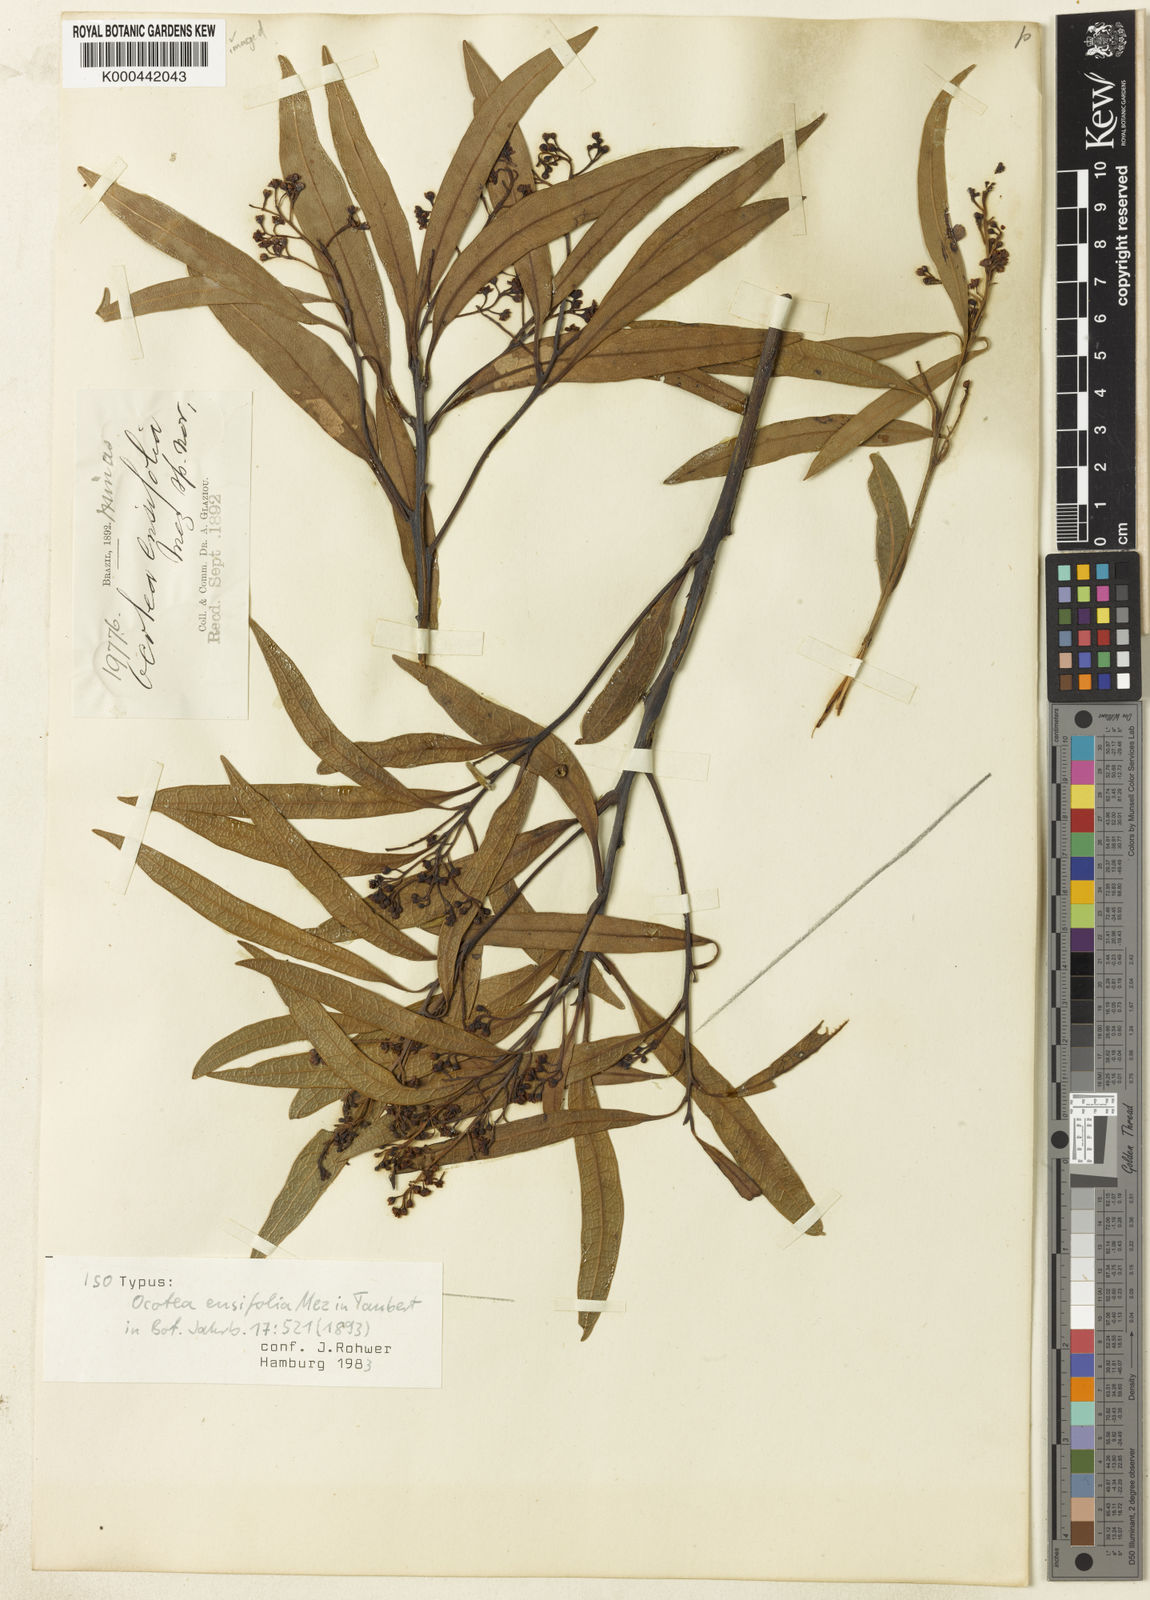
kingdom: Plantae
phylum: Tracheophyta
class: Magnoliopsida
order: Laurales
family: Lauraceae
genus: Ocotea
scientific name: Ocotea langsdorffii
